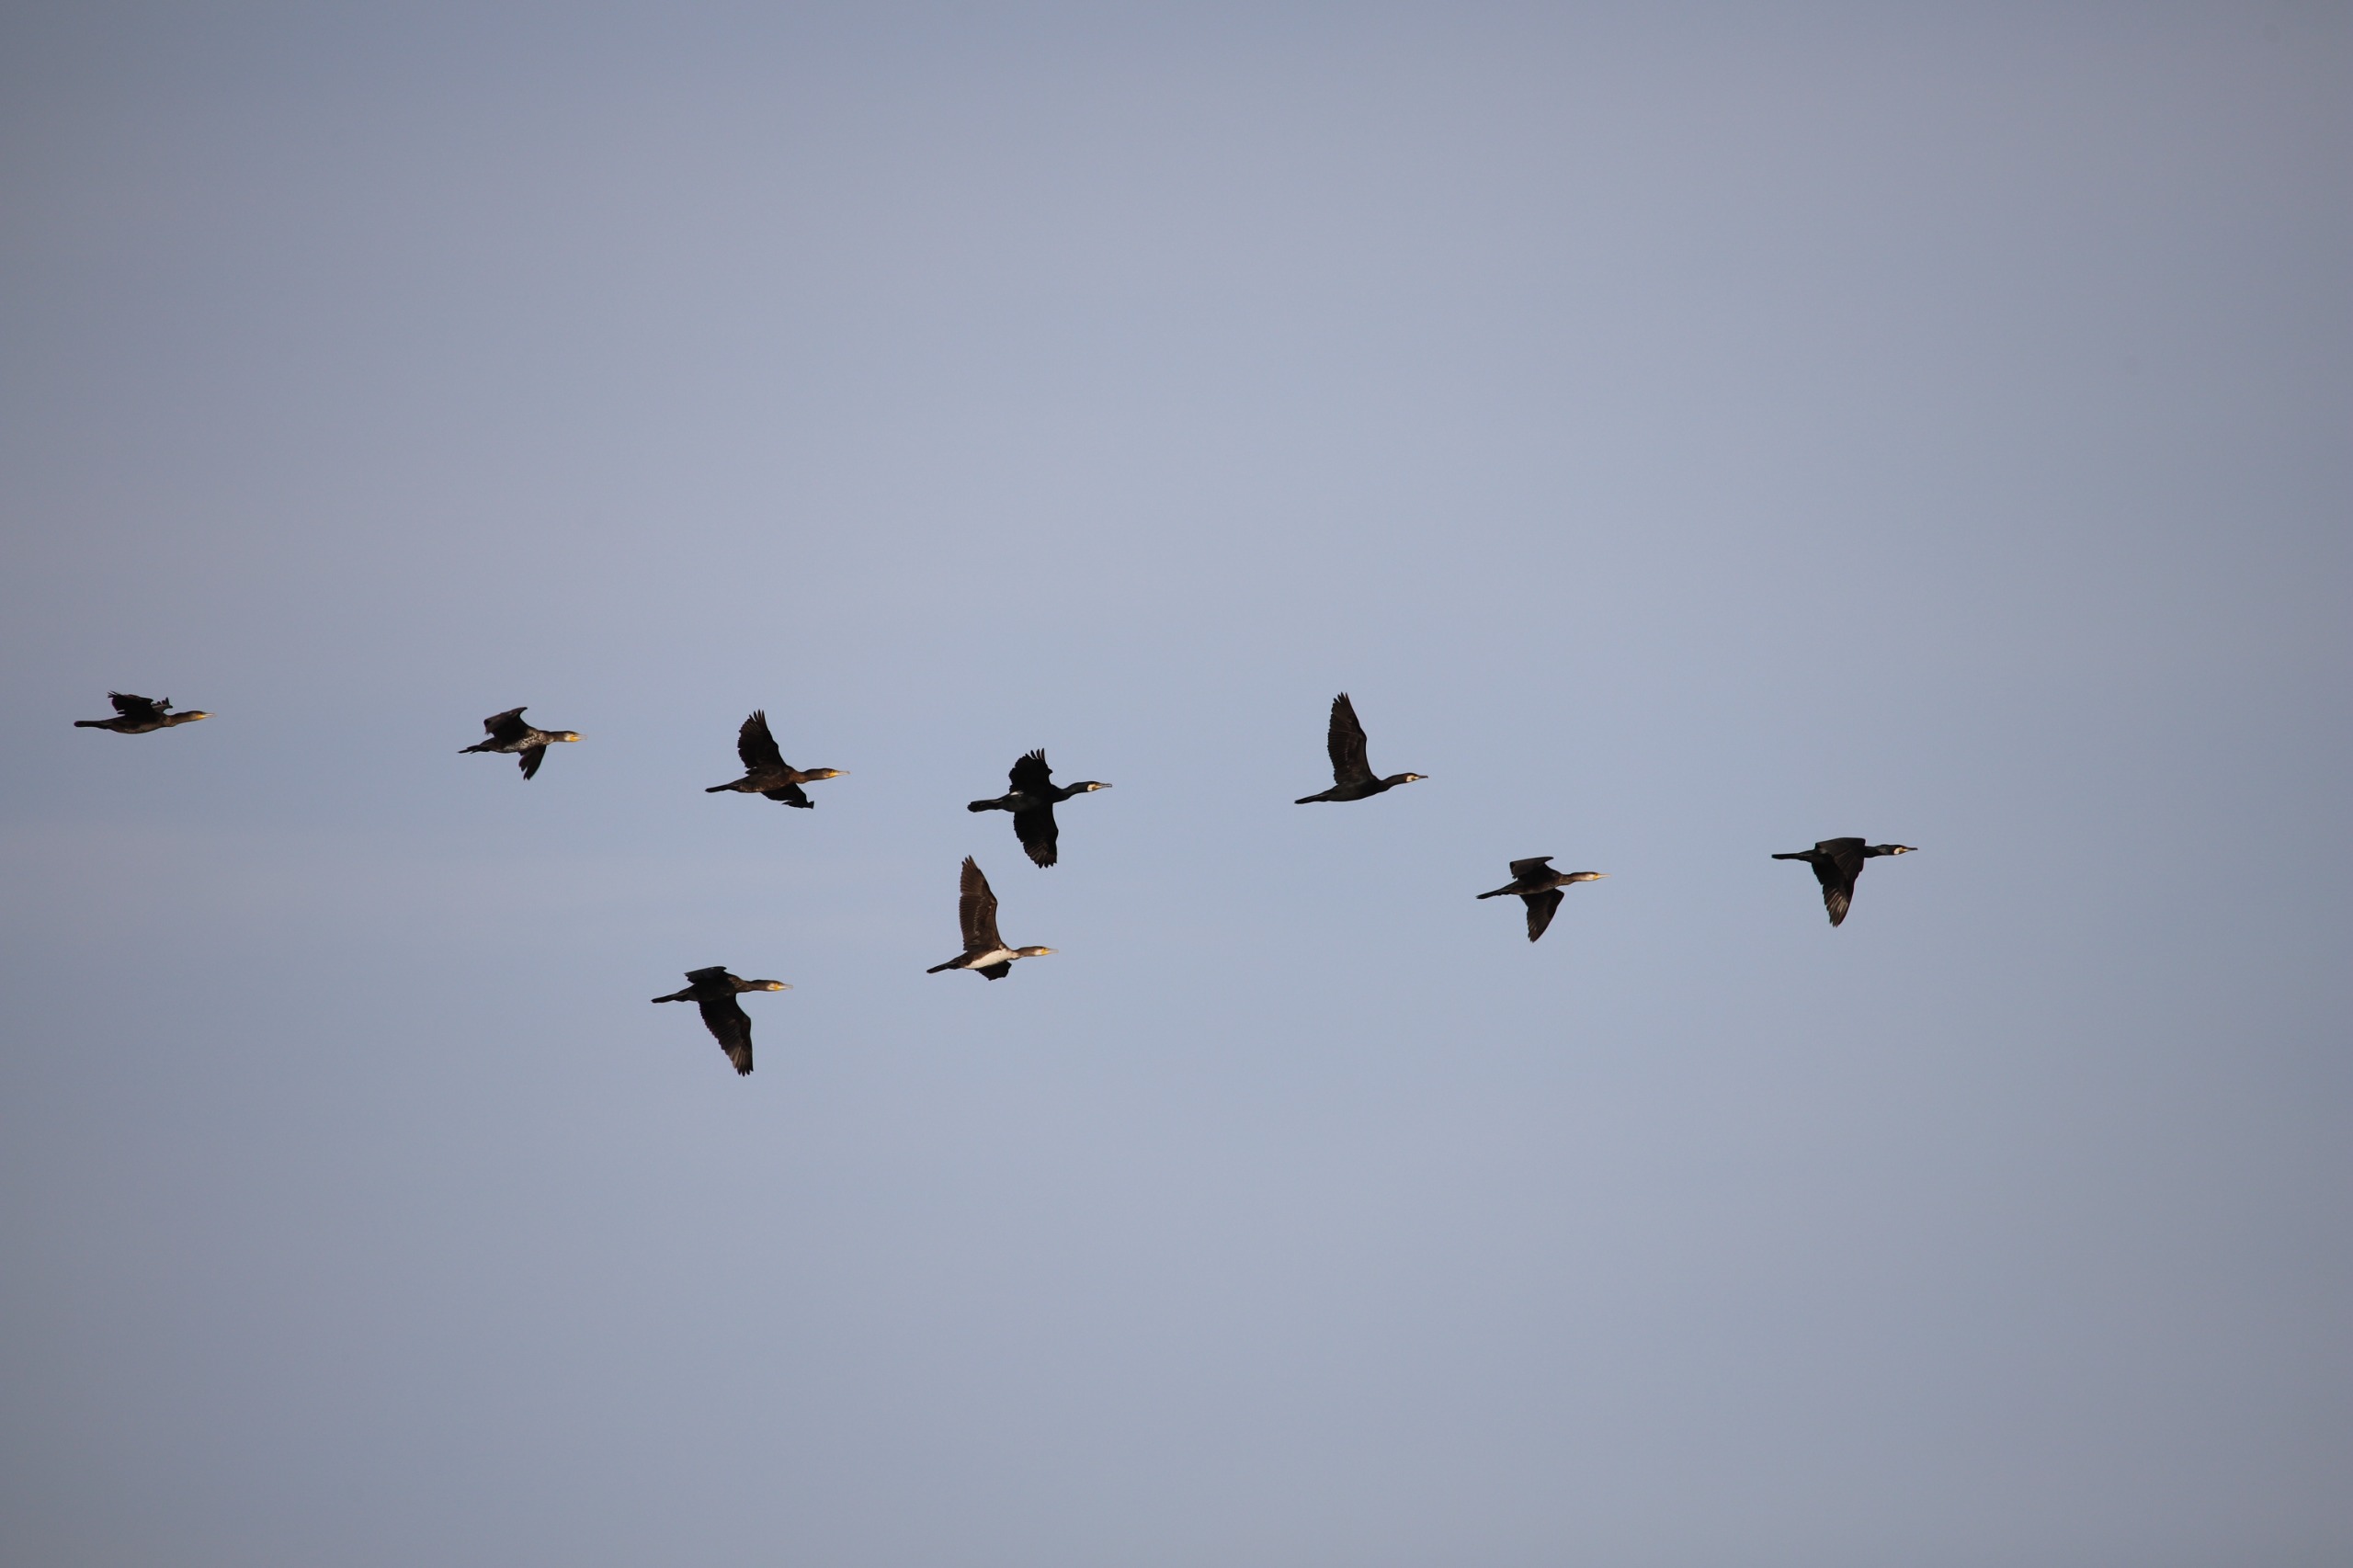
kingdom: Animalia
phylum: Chordata
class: Aves
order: Suliformes
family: Phalacrocoracidae
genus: Phalacrocorax
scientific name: Phalacrocorax carbo
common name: Skarv
